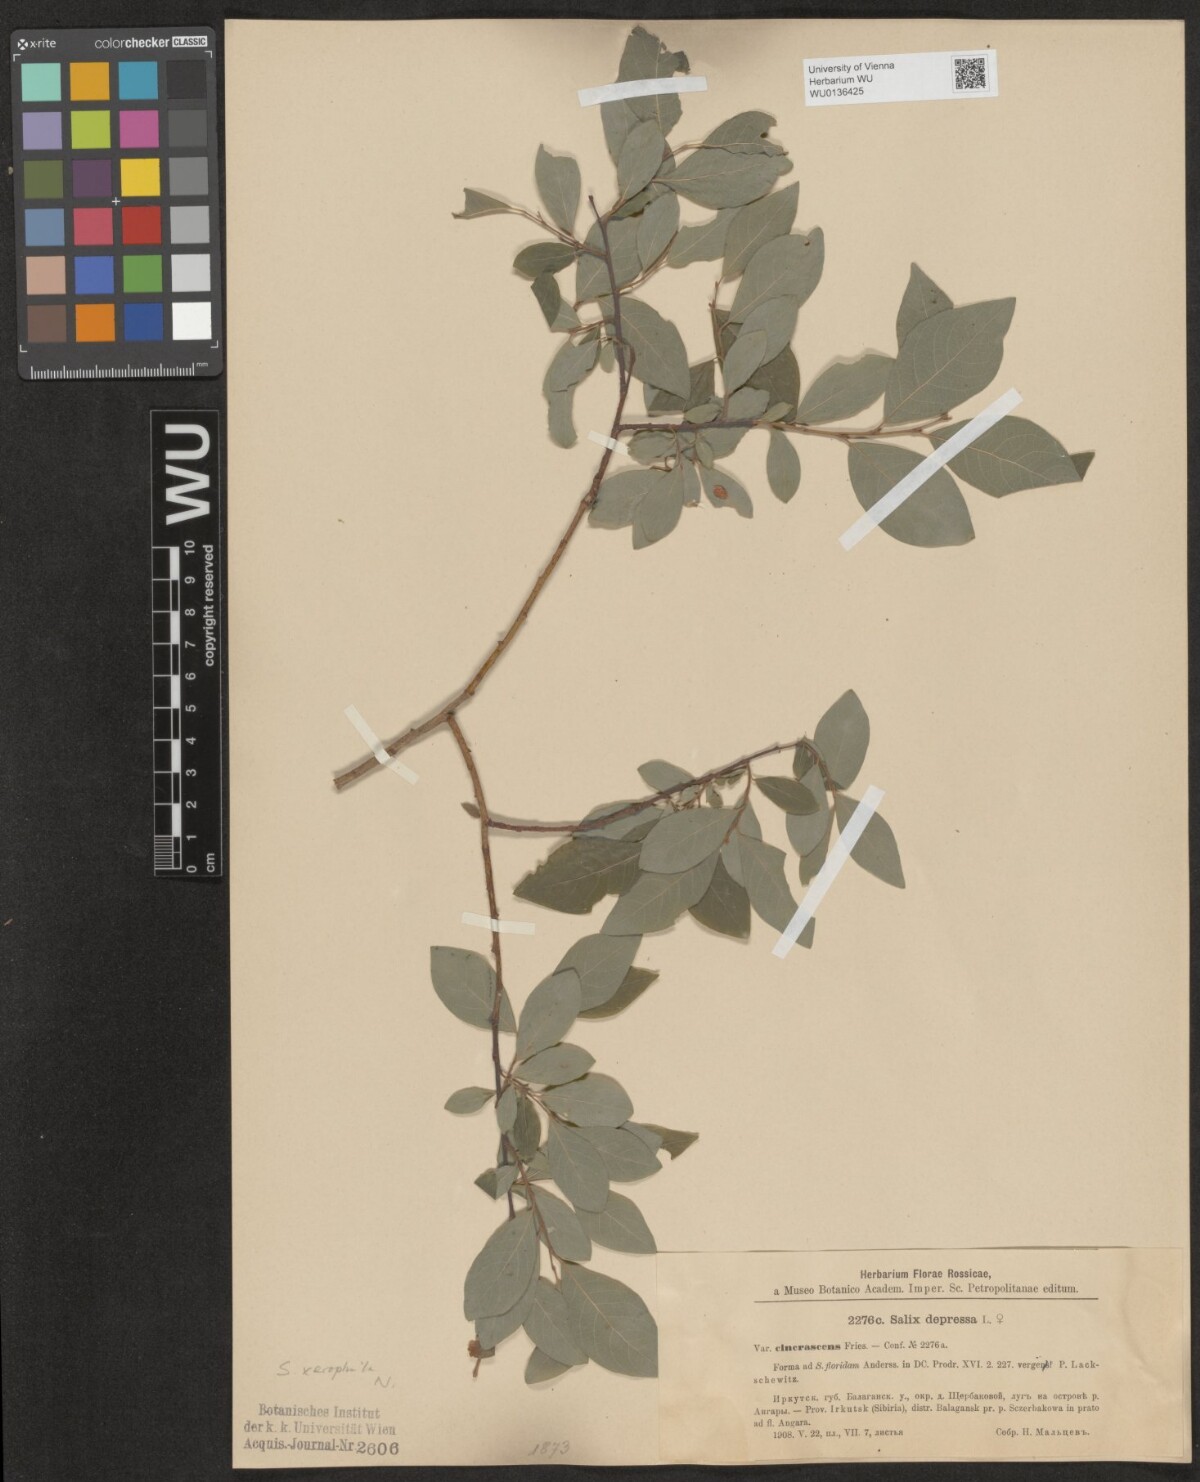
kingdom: Plantae
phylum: Tracheophyta
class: Magnoliopsida
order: Malpighiales
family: Salicaceae
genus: Salix
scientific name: Salix lanata
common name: Woolly willow
